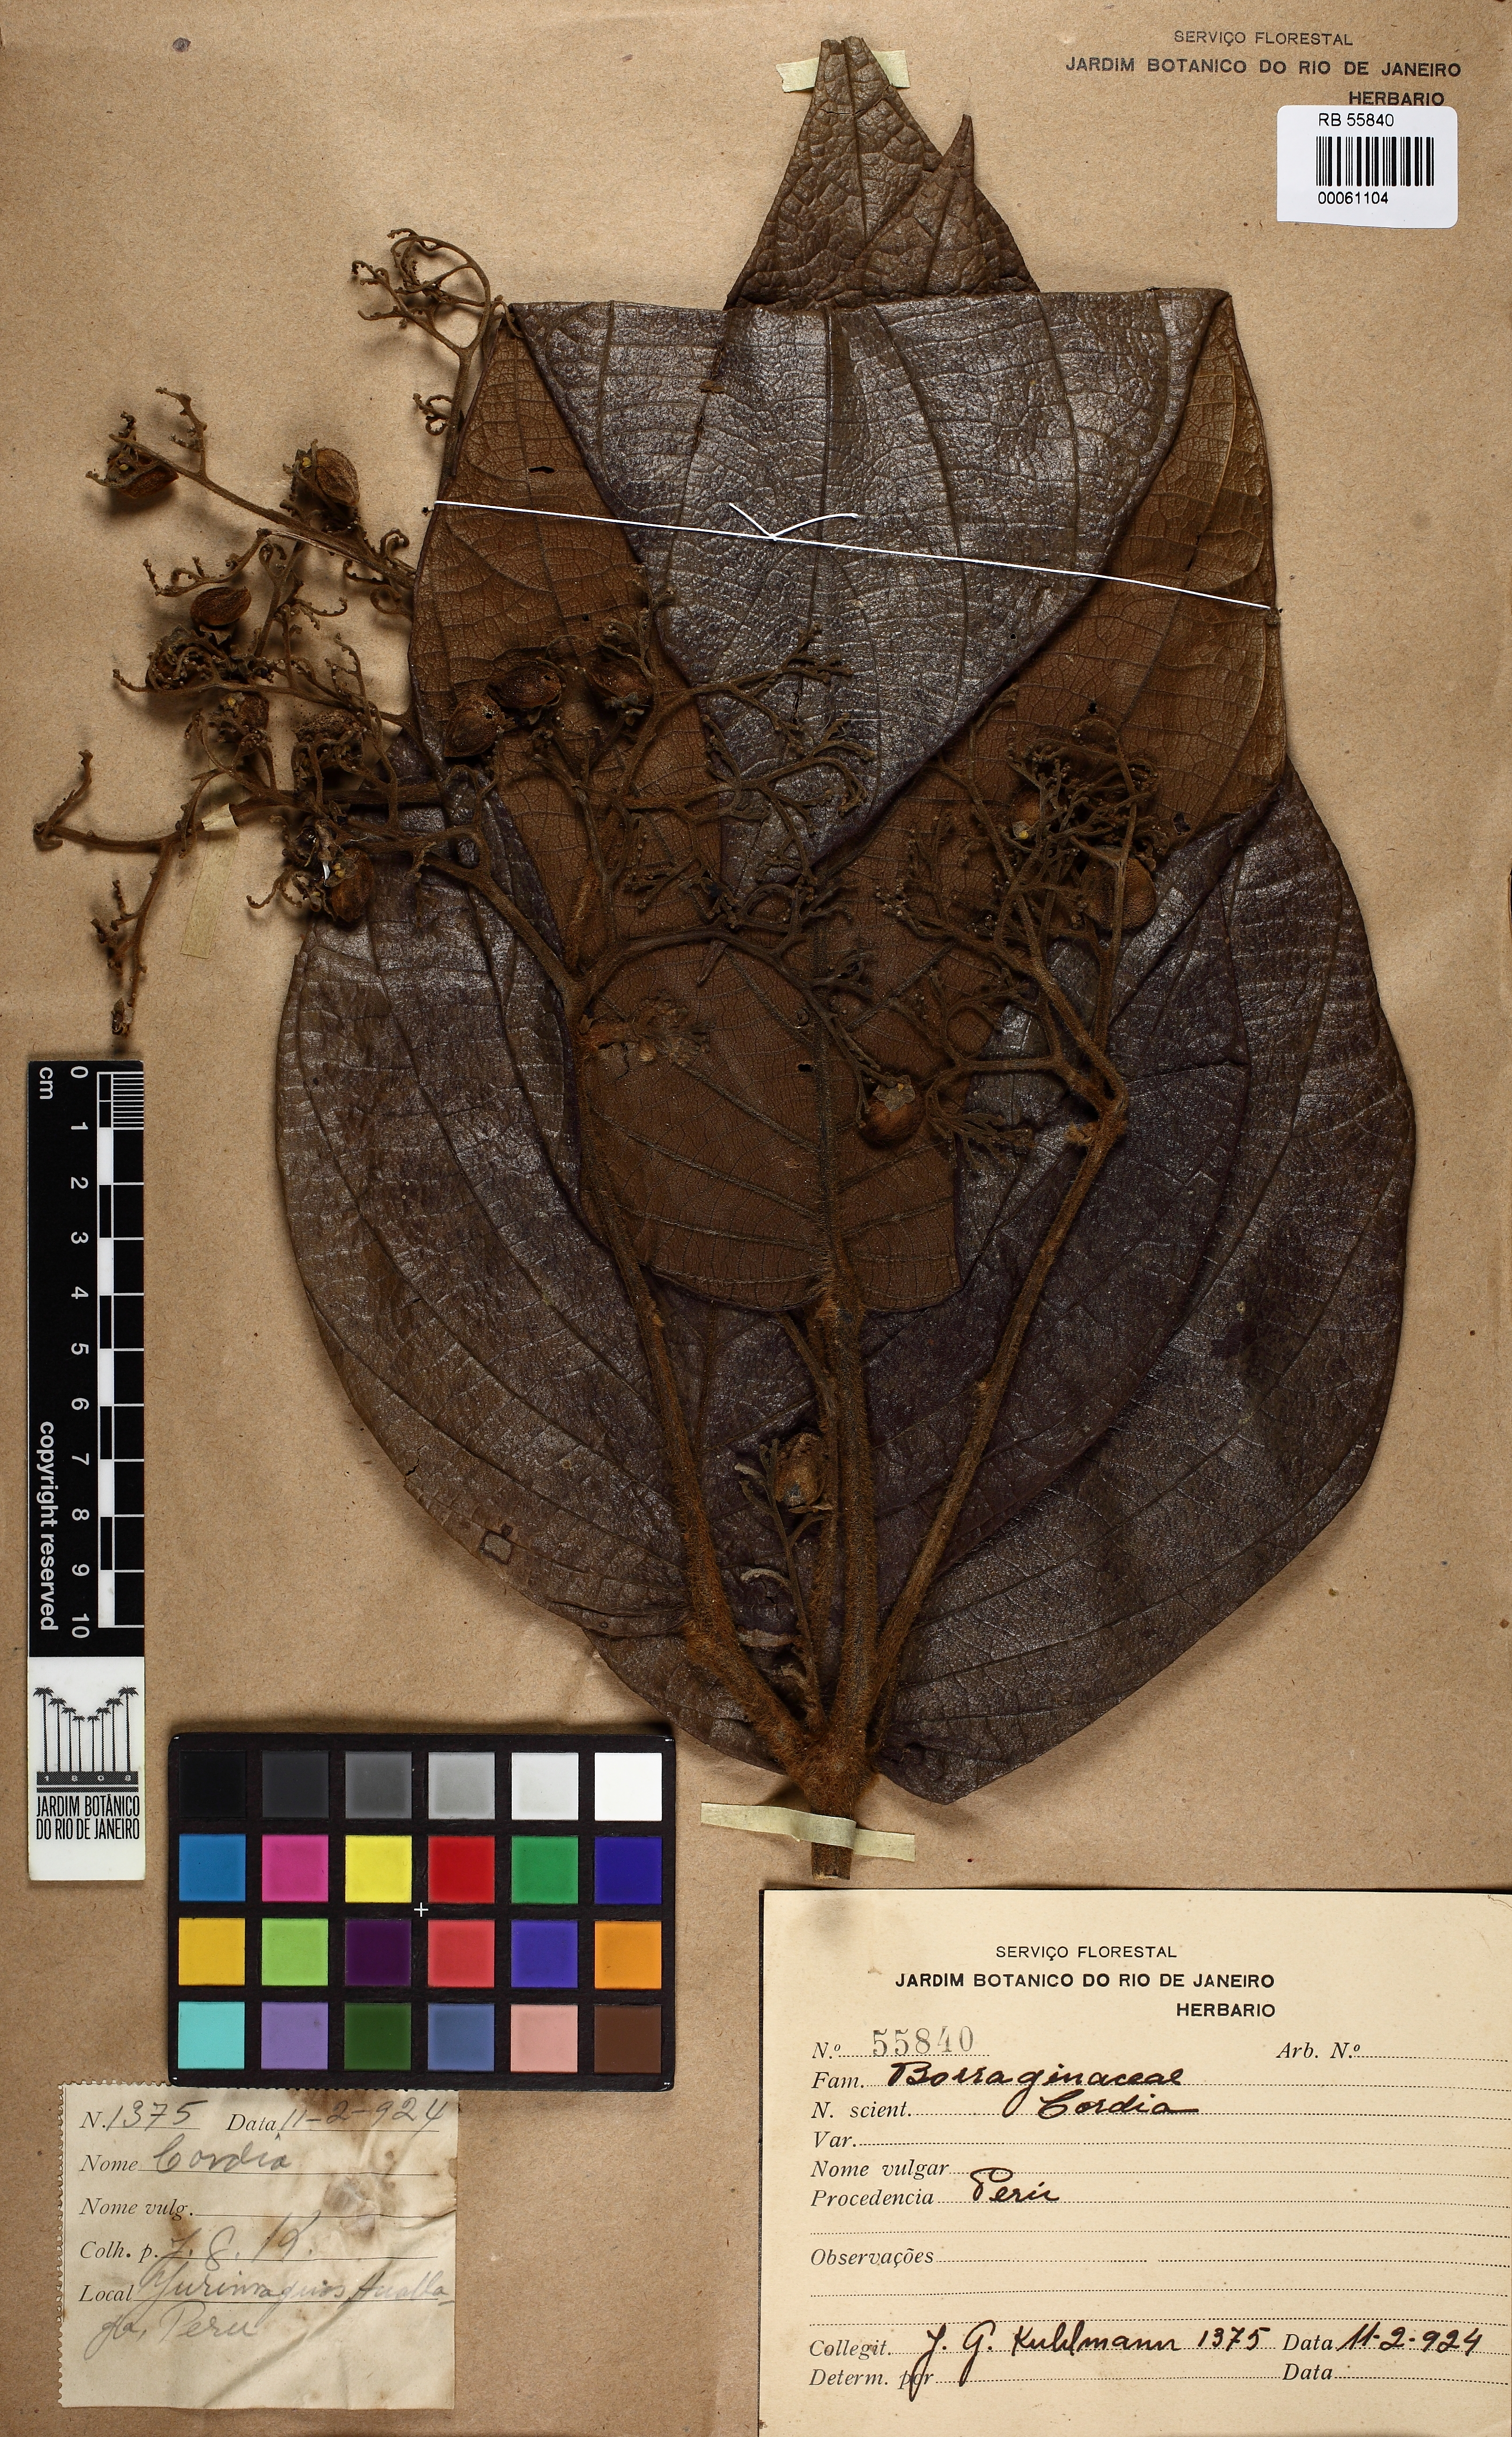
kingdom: Plantae
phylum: Tracheophyta
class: Magnoliopsida
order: Boraginales
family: Cordiaceae
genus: Cordia
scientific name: Cordia
